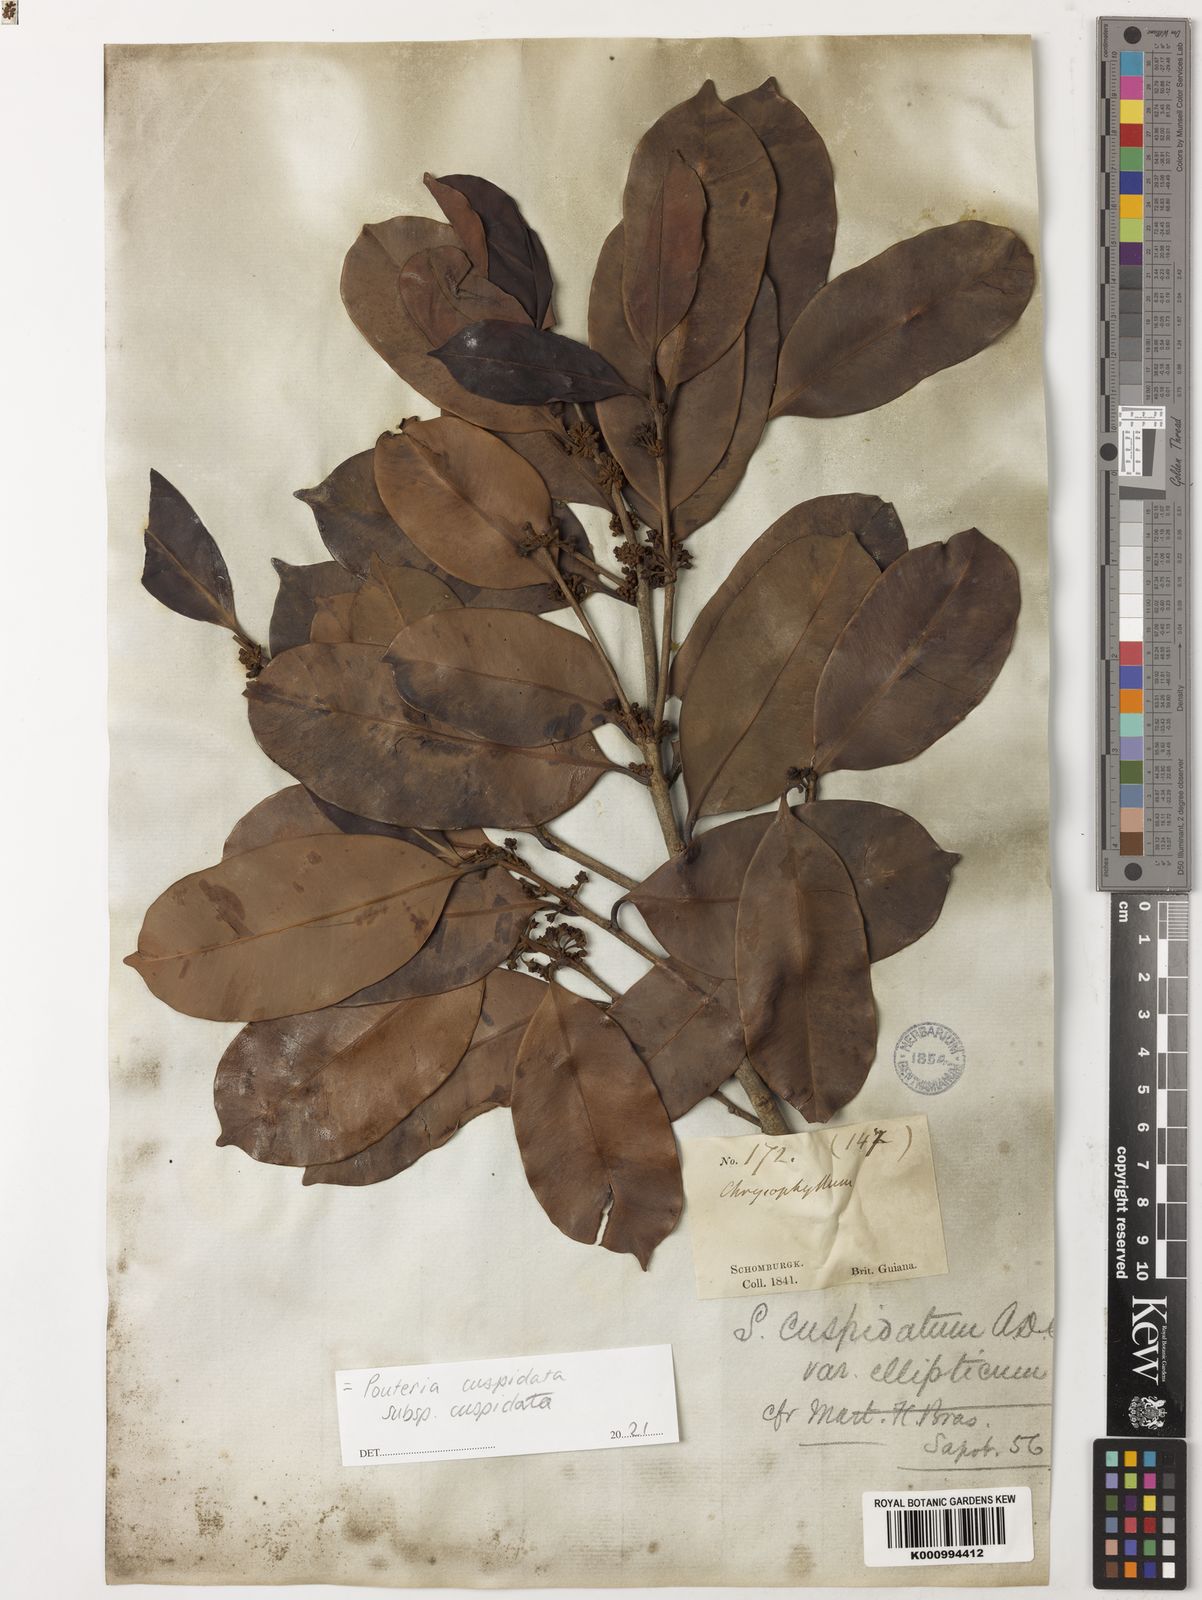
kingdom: Plantae
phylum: Tracheophyta
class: Magnoliopsida
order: Ericales
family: Sapotaceae
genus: Pouteria
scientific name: Pouteria cuspidata
